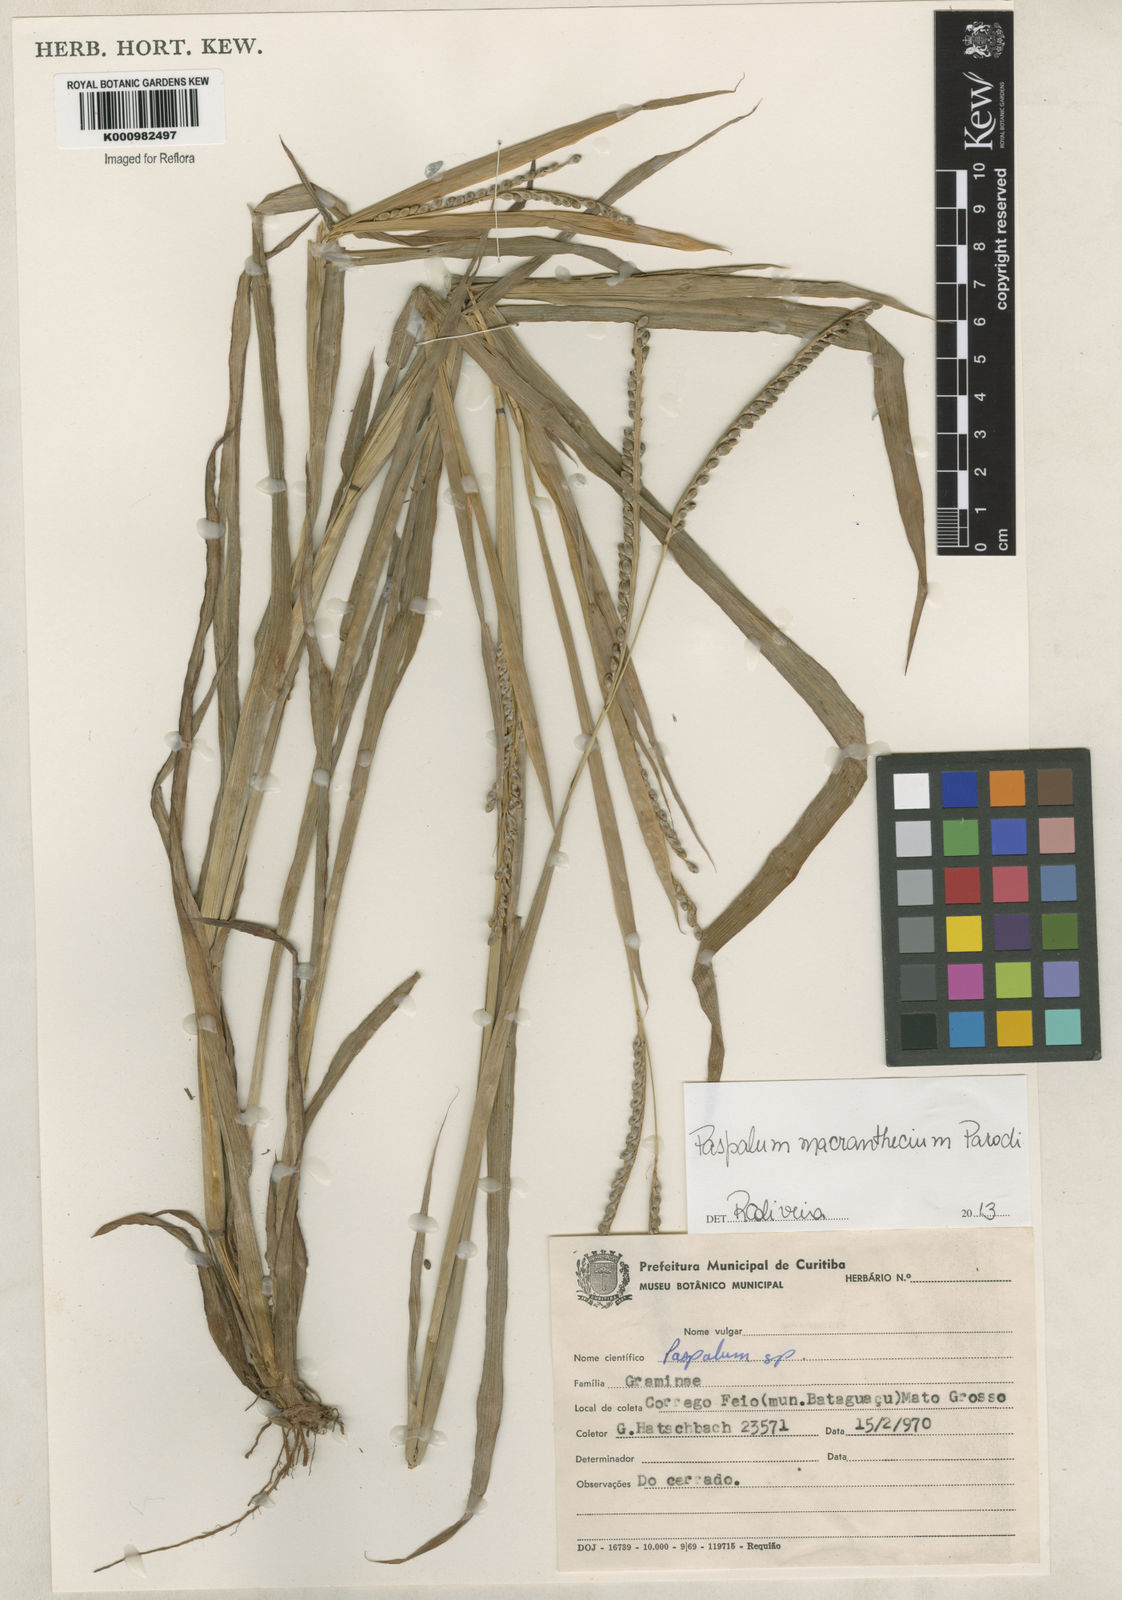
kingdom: Plantae
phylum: Tracheophyta
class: Liliopsida
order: Poales
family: Poaceae
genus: Paspalum
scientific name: Paspalum macranthecium
